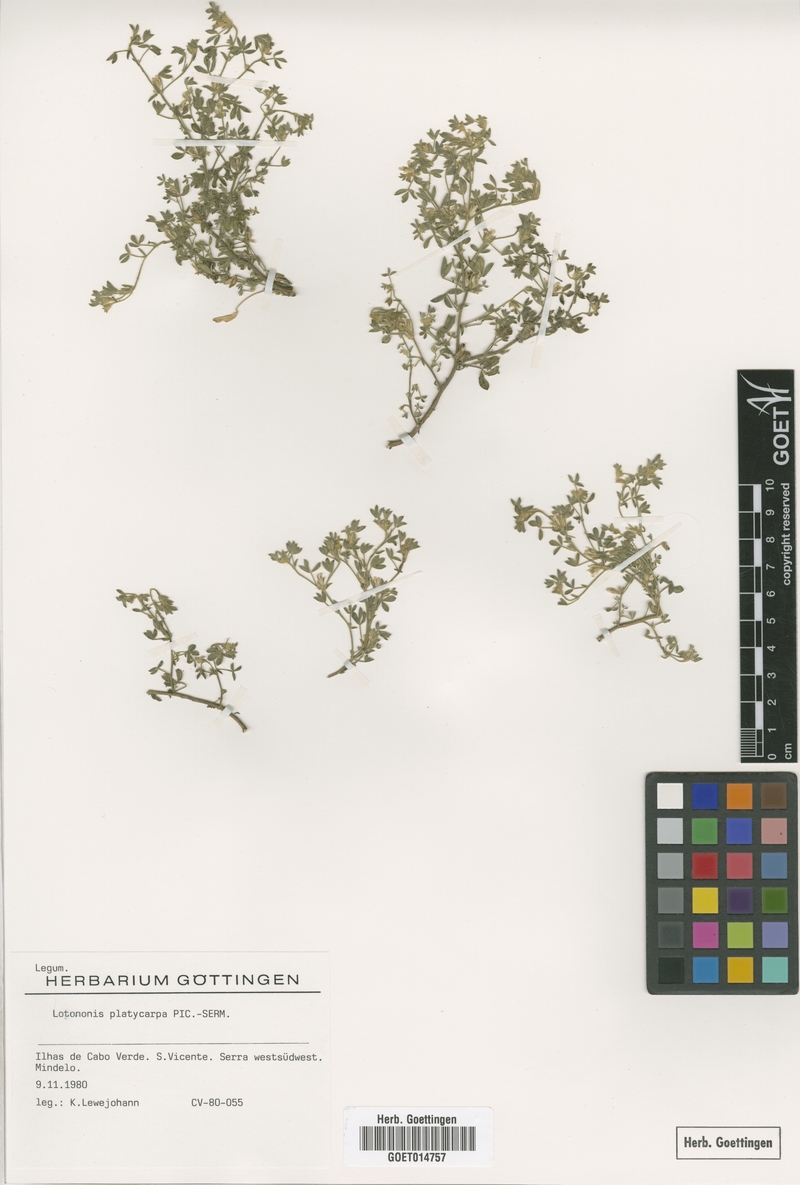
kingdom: Plantae
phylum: Tracheophyta
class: Magnoliopsida
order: Fabales
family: Fabaceae
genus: Leobordea
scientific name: Leobordea platycarpa
